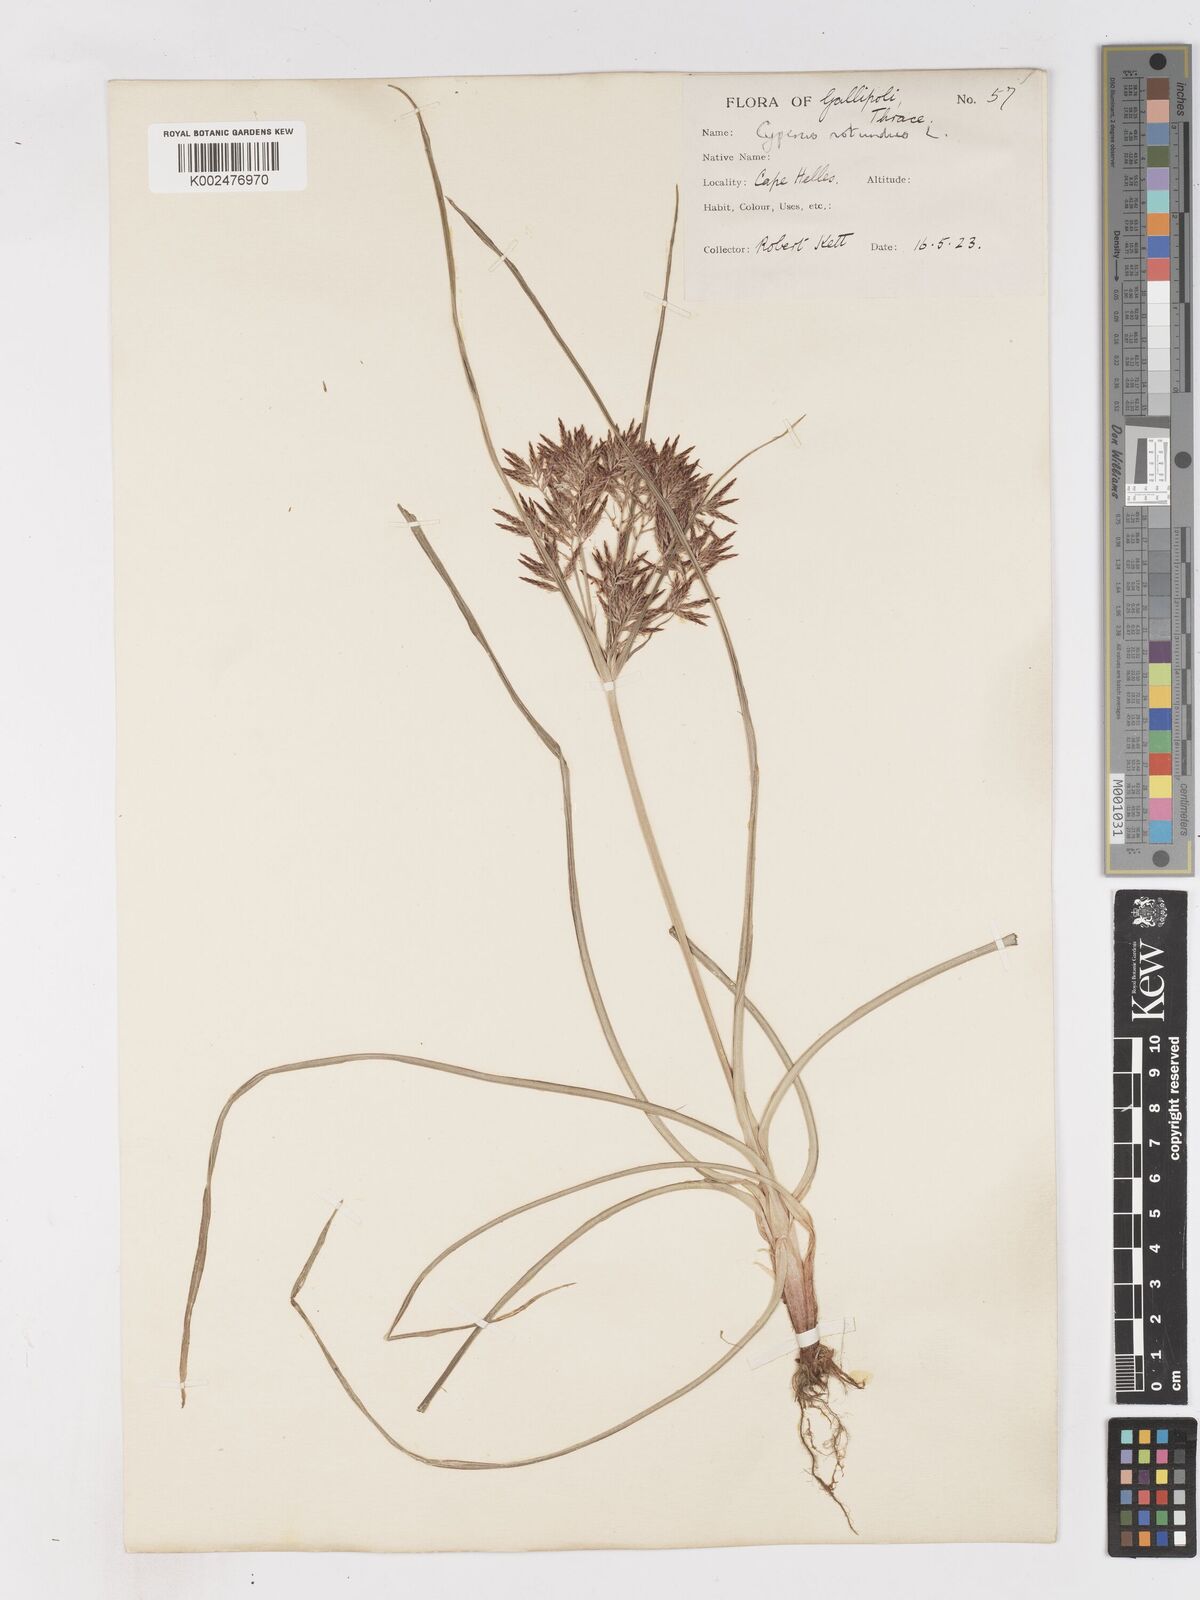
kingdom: Plantae
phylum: Tracheophyta
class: Liliopsida
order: Poales
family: Cyperaceae
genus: Cyperus
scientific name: Cyperus rotundus
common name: Nutgrass
